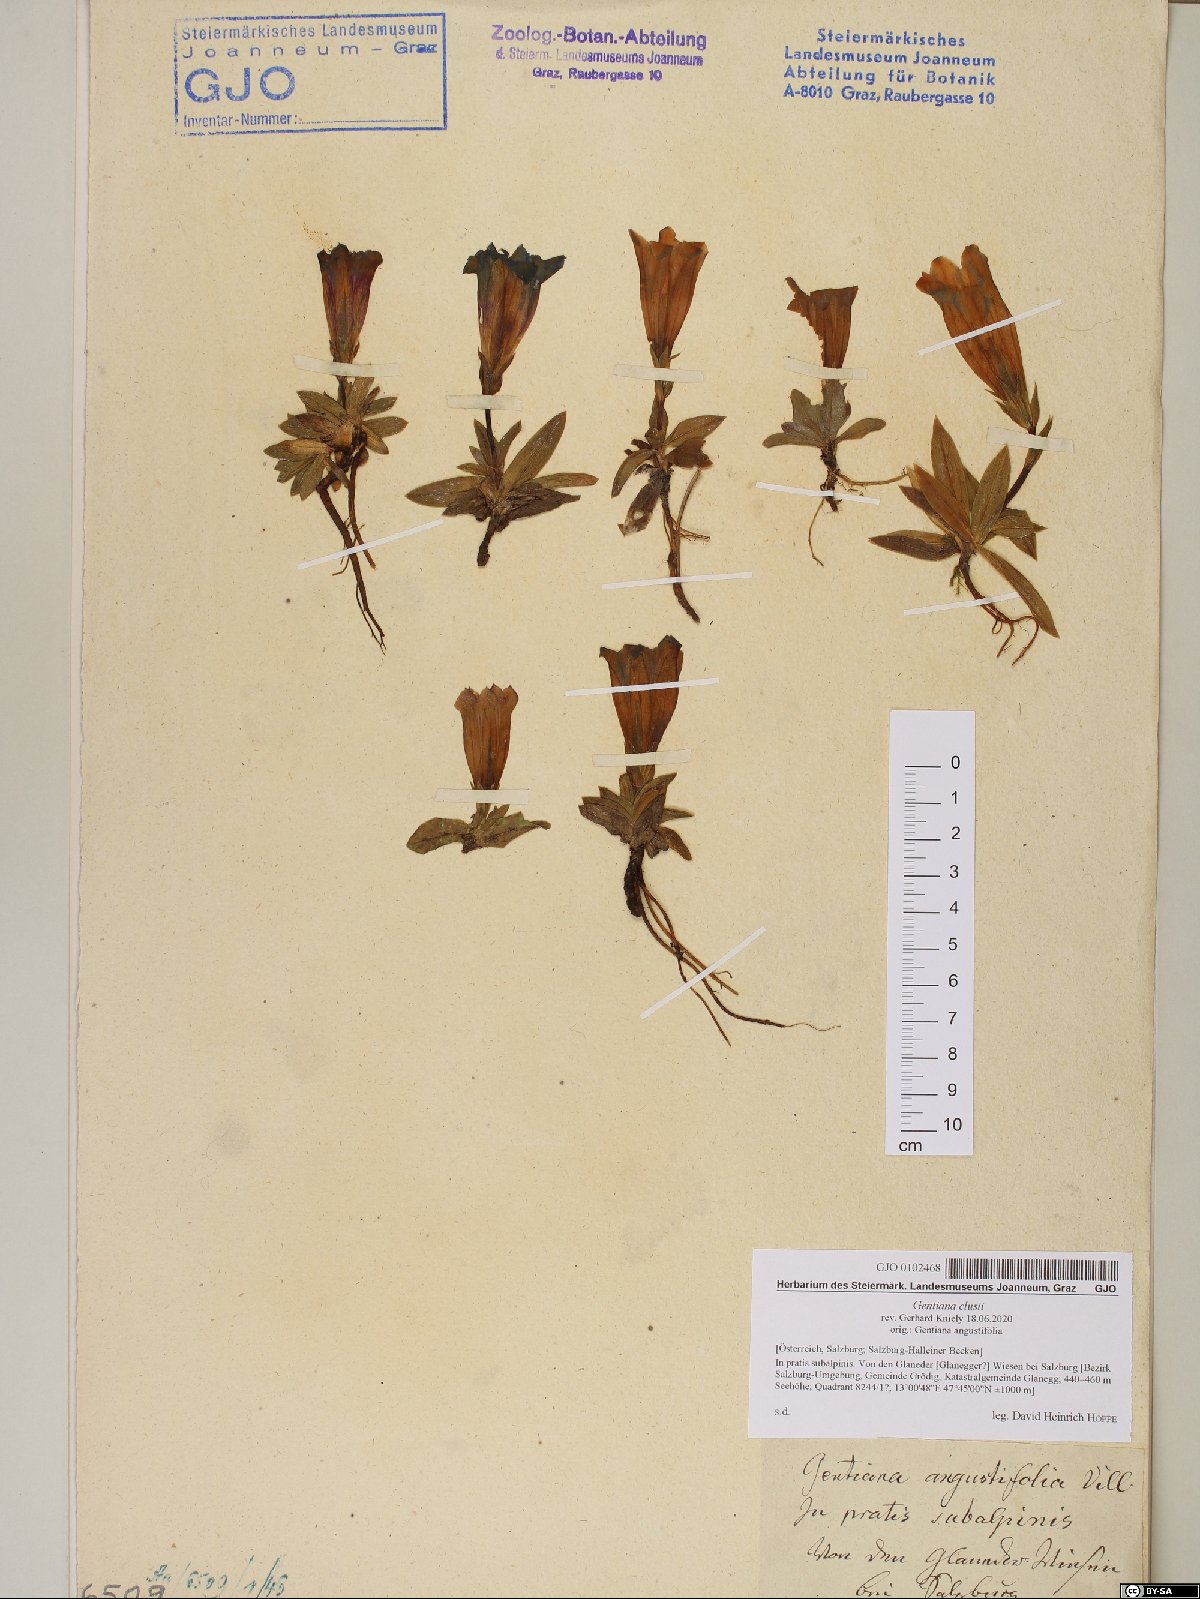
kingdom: Plantae
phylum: Tracheophyta
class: Magnoliopsida
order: Gentianales
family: Gentianaceae
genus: Gentiana
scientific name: Gentiana clusii
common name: Trumpet gentian
